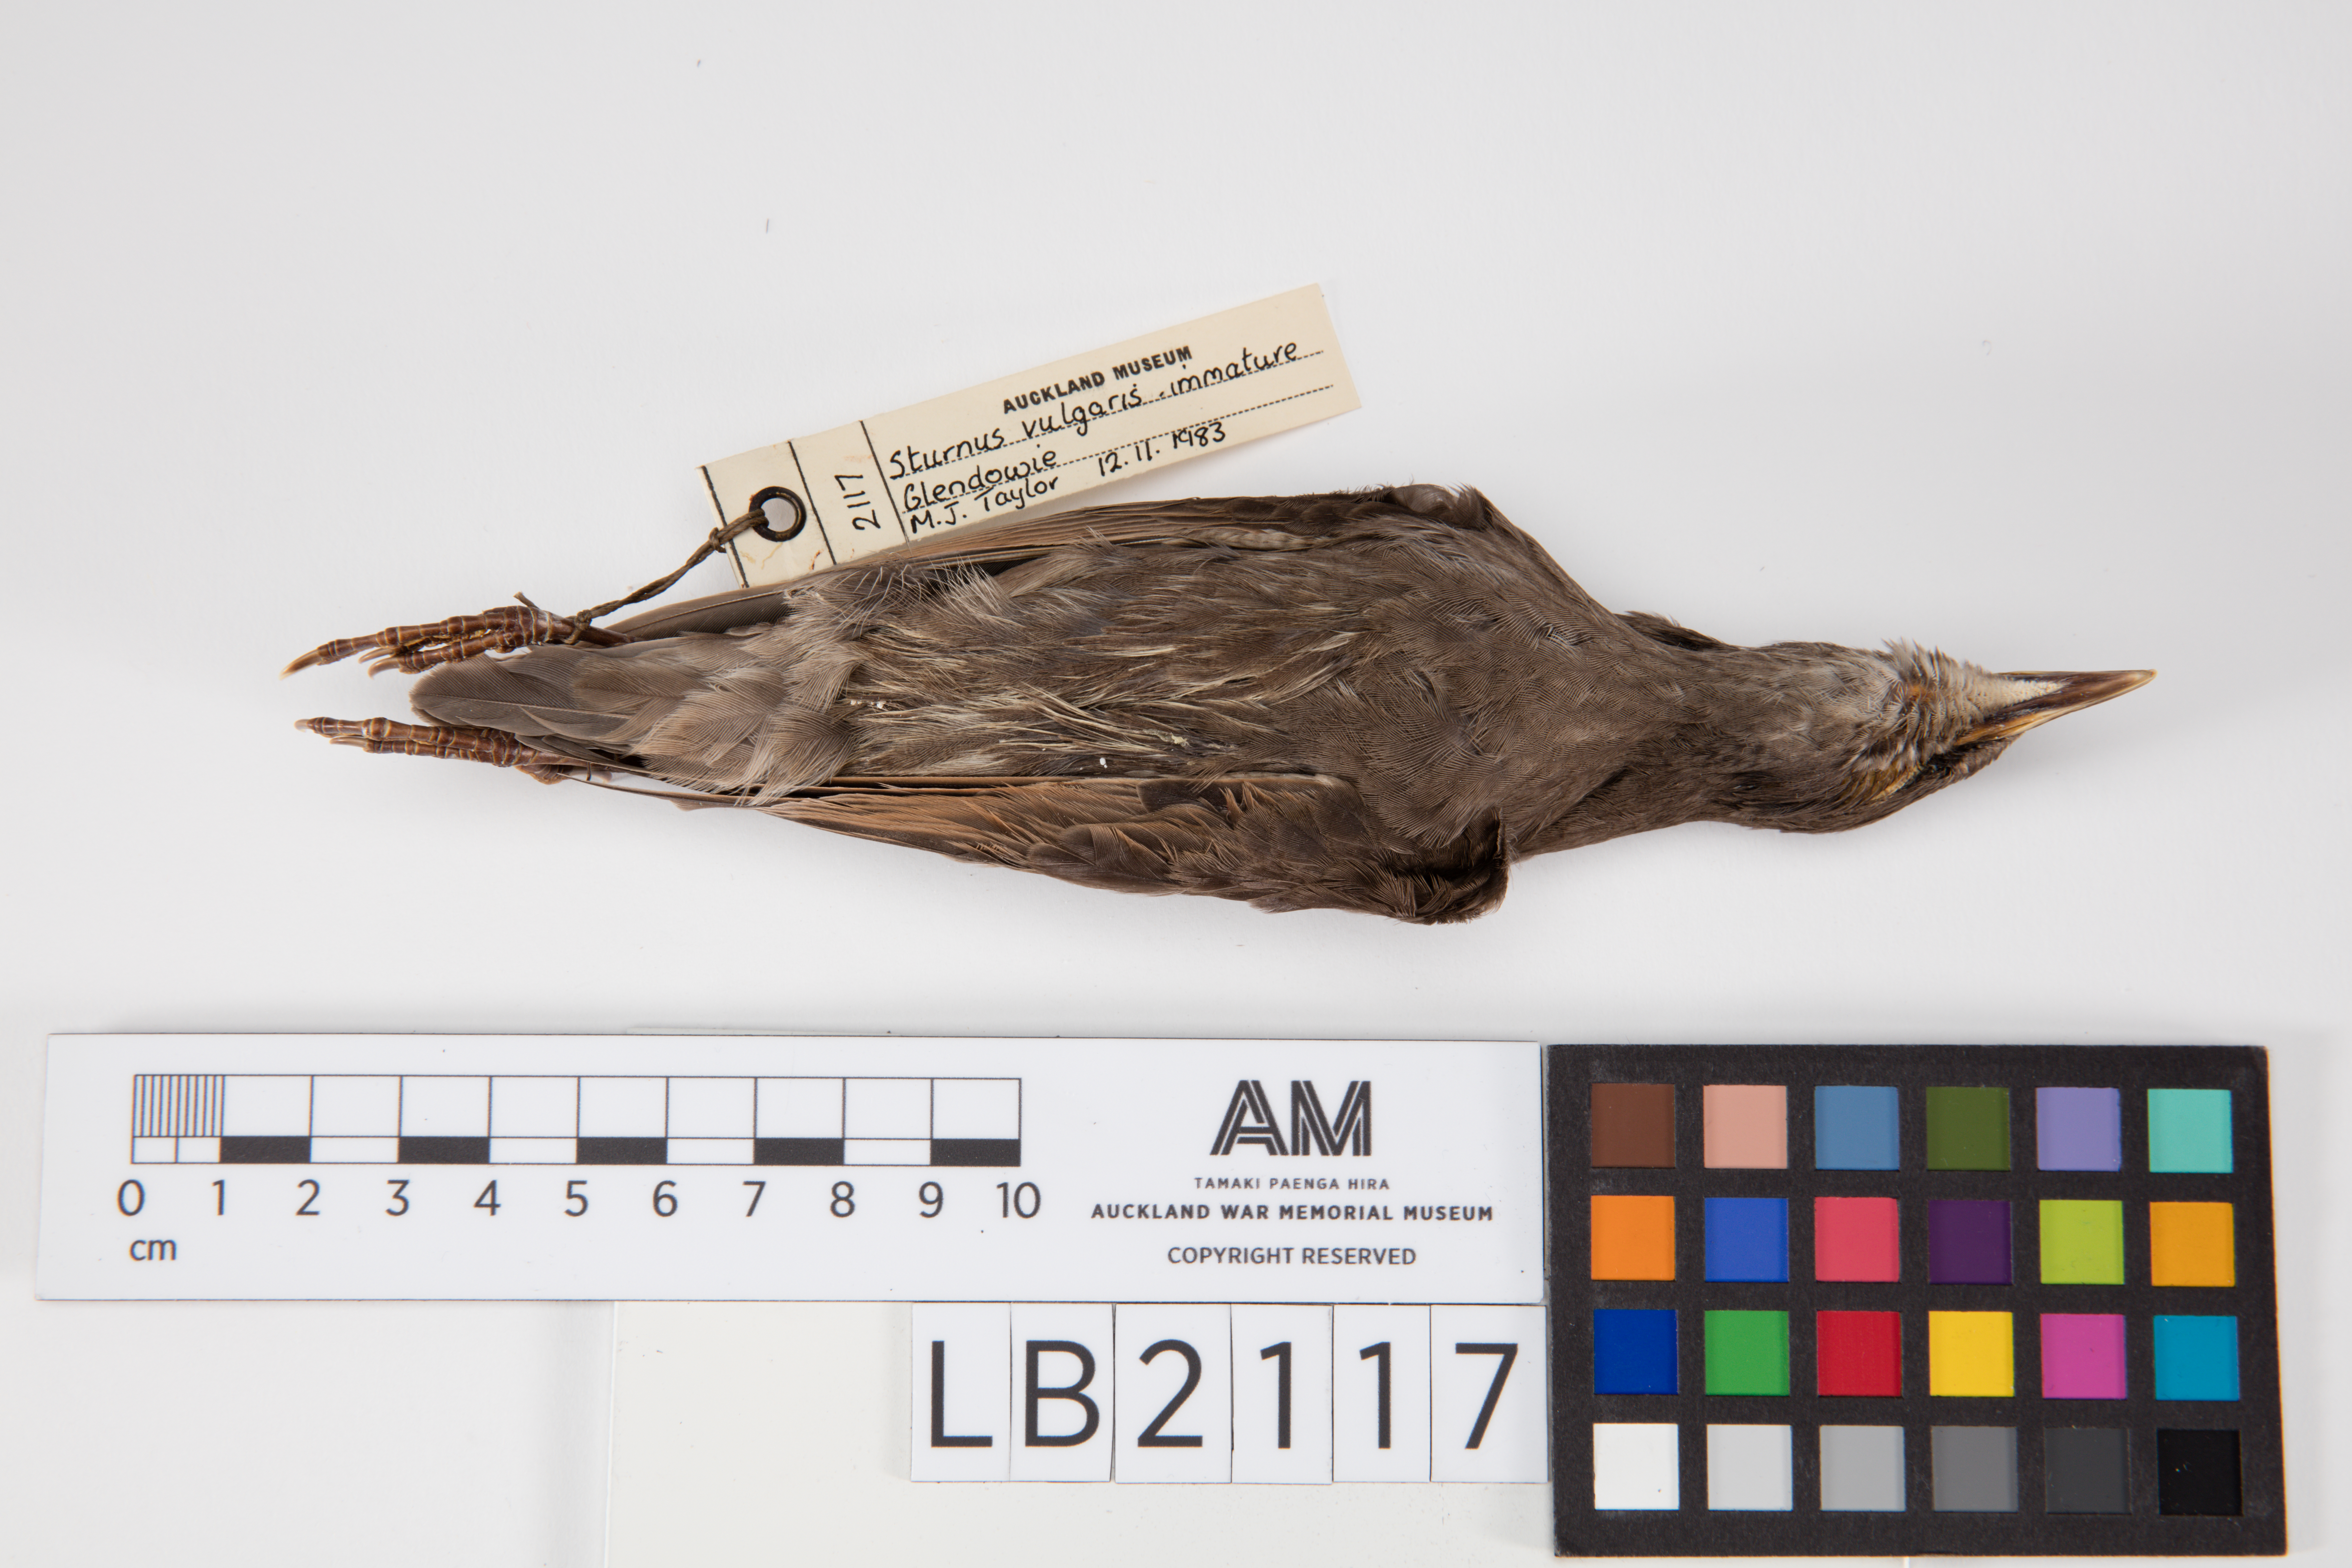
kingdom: Animalia
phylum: Chordata
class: Aves
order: Passeriformes
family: Sturnidae
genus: Sturnus
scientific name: Sturnus vulgaris
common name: Common starling
